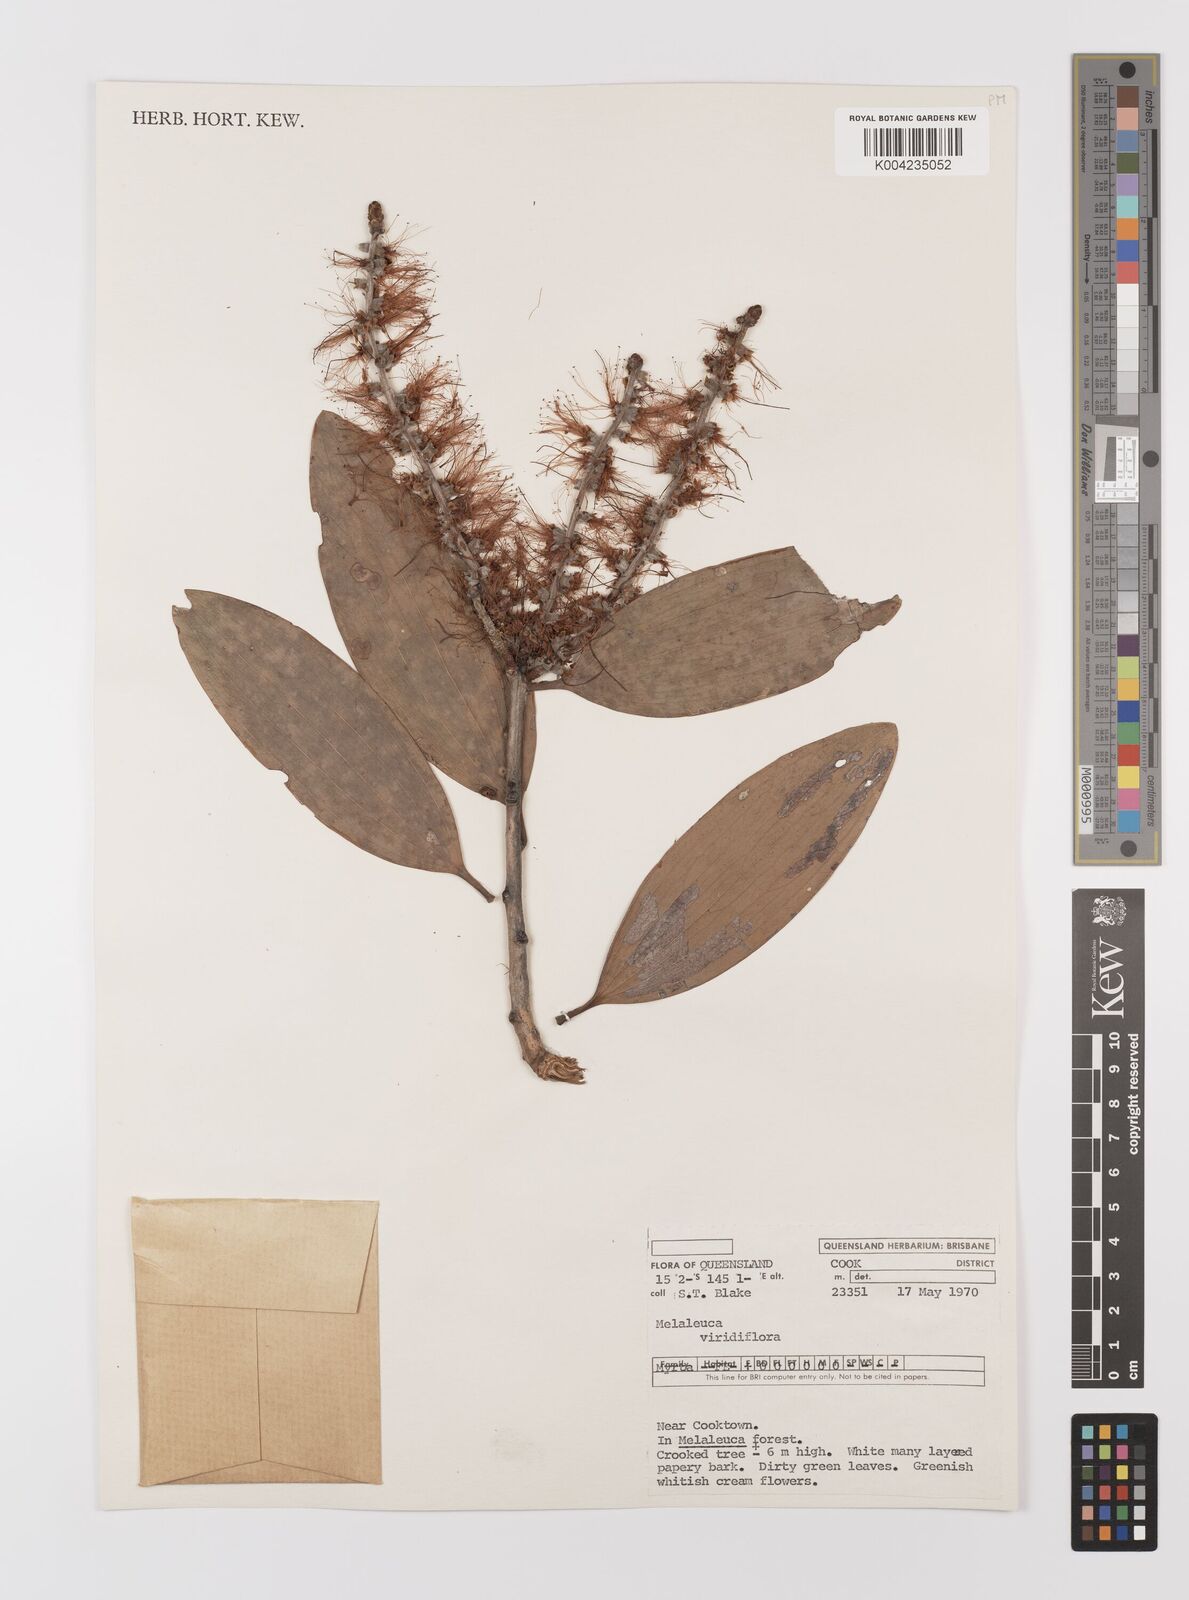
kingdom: Plantae
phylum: Tracheophyta
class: Magnoliopsida
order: Myrtales
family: Myrtaceae
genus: Melaleuca
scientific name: Melaleuca viridiflora
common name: Brown-leaved paperbark
